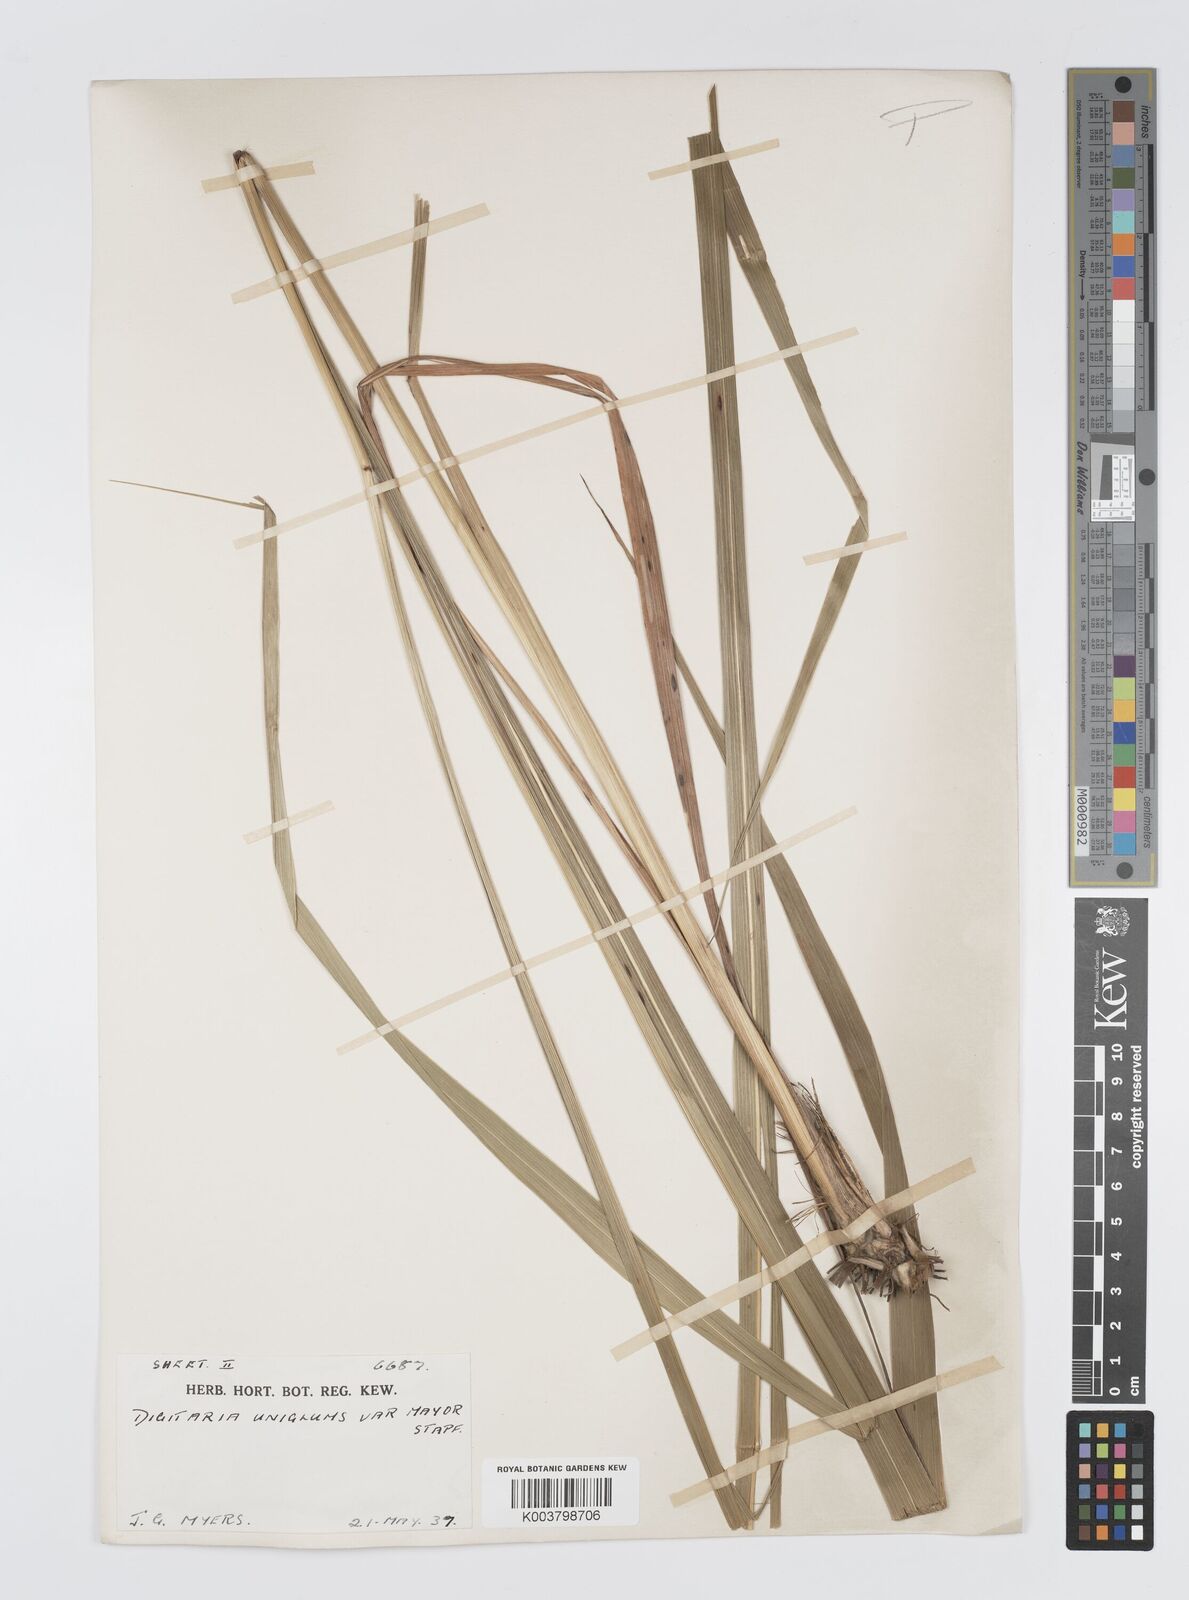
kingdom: Plantae
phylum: Tracheophyta
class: Liliopsida
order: Poales
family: Poaceae
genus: Digitaria
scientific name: Digitaria diagonalis
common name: Brown-seed finger grass
